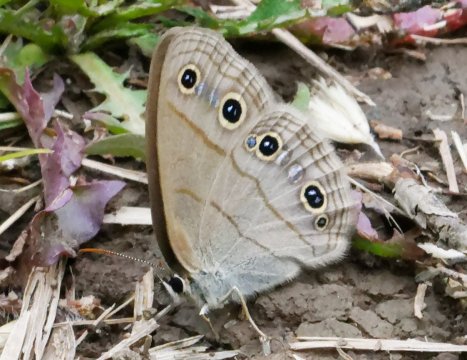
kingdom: Animalia
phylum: Arthropoda
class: Insecta
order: Lepidoptera
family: Nymphalidae
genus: Euptychia
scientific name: Euptychia cymela
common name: Little Wood Satyr
